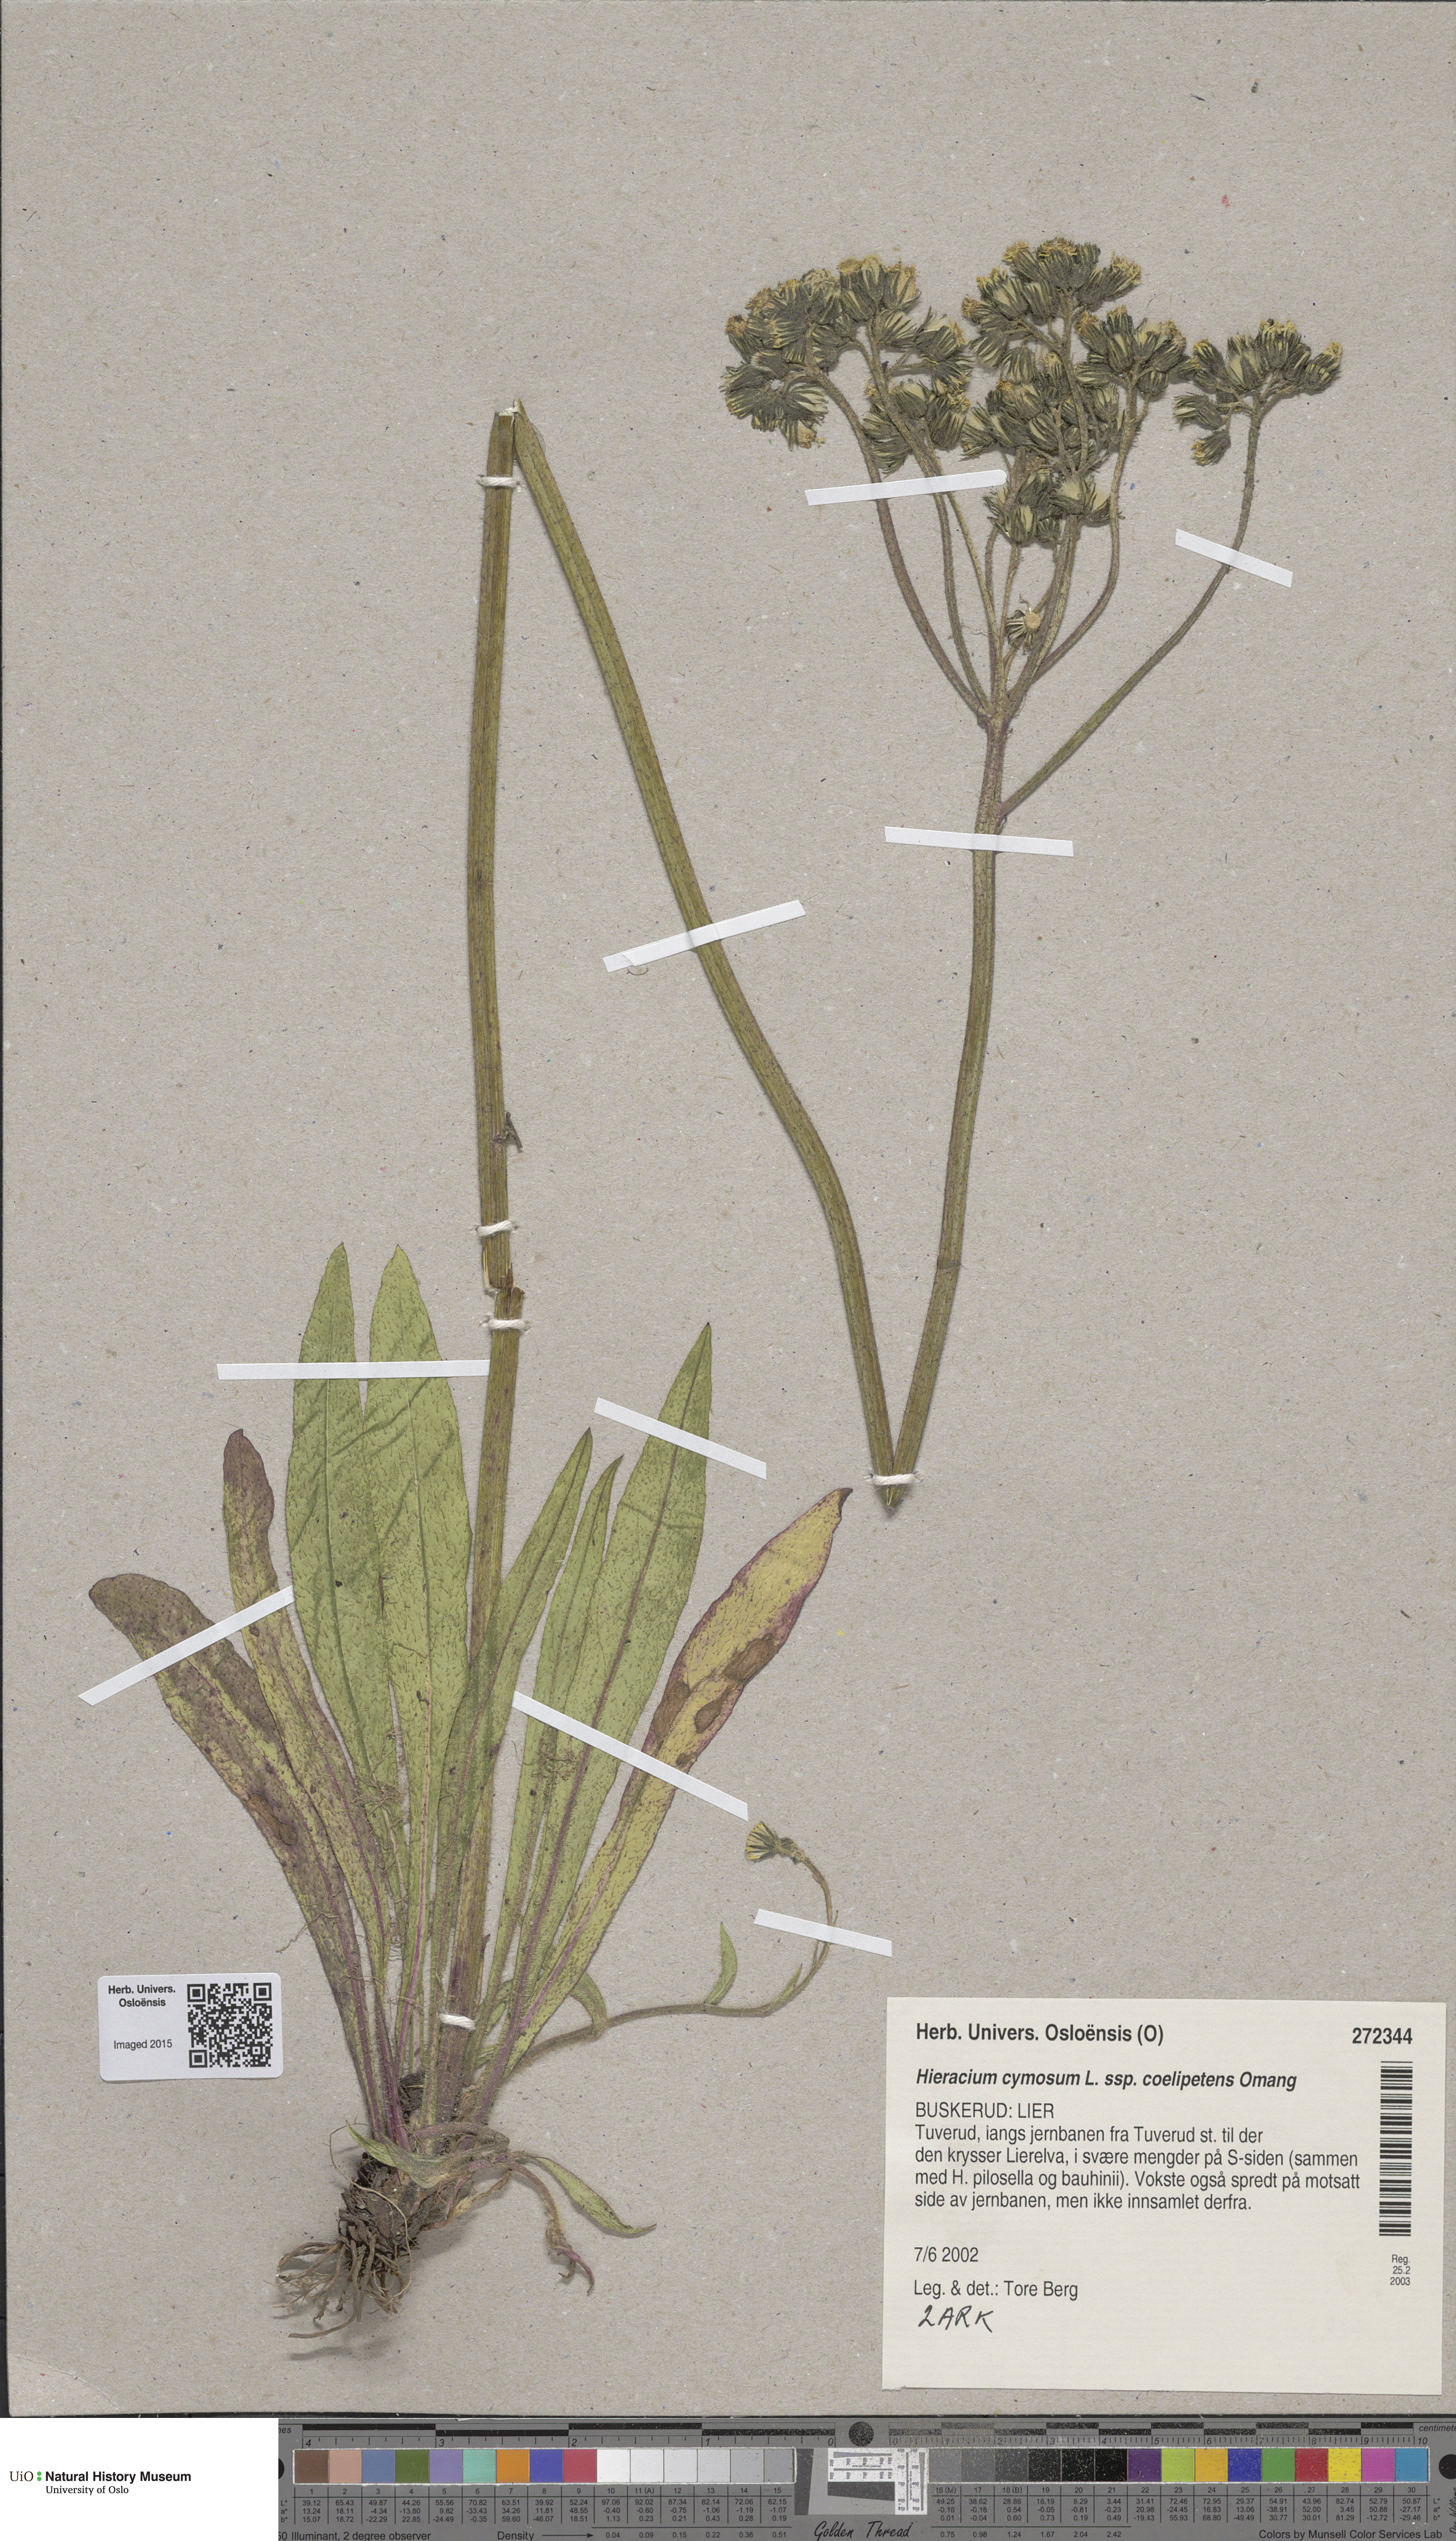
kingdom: Plantae
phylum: Tracheophyta
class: Magnoliopsida
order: Asterales
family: Asteraceae
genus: Pilosella
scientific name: Pilosella cymosa
